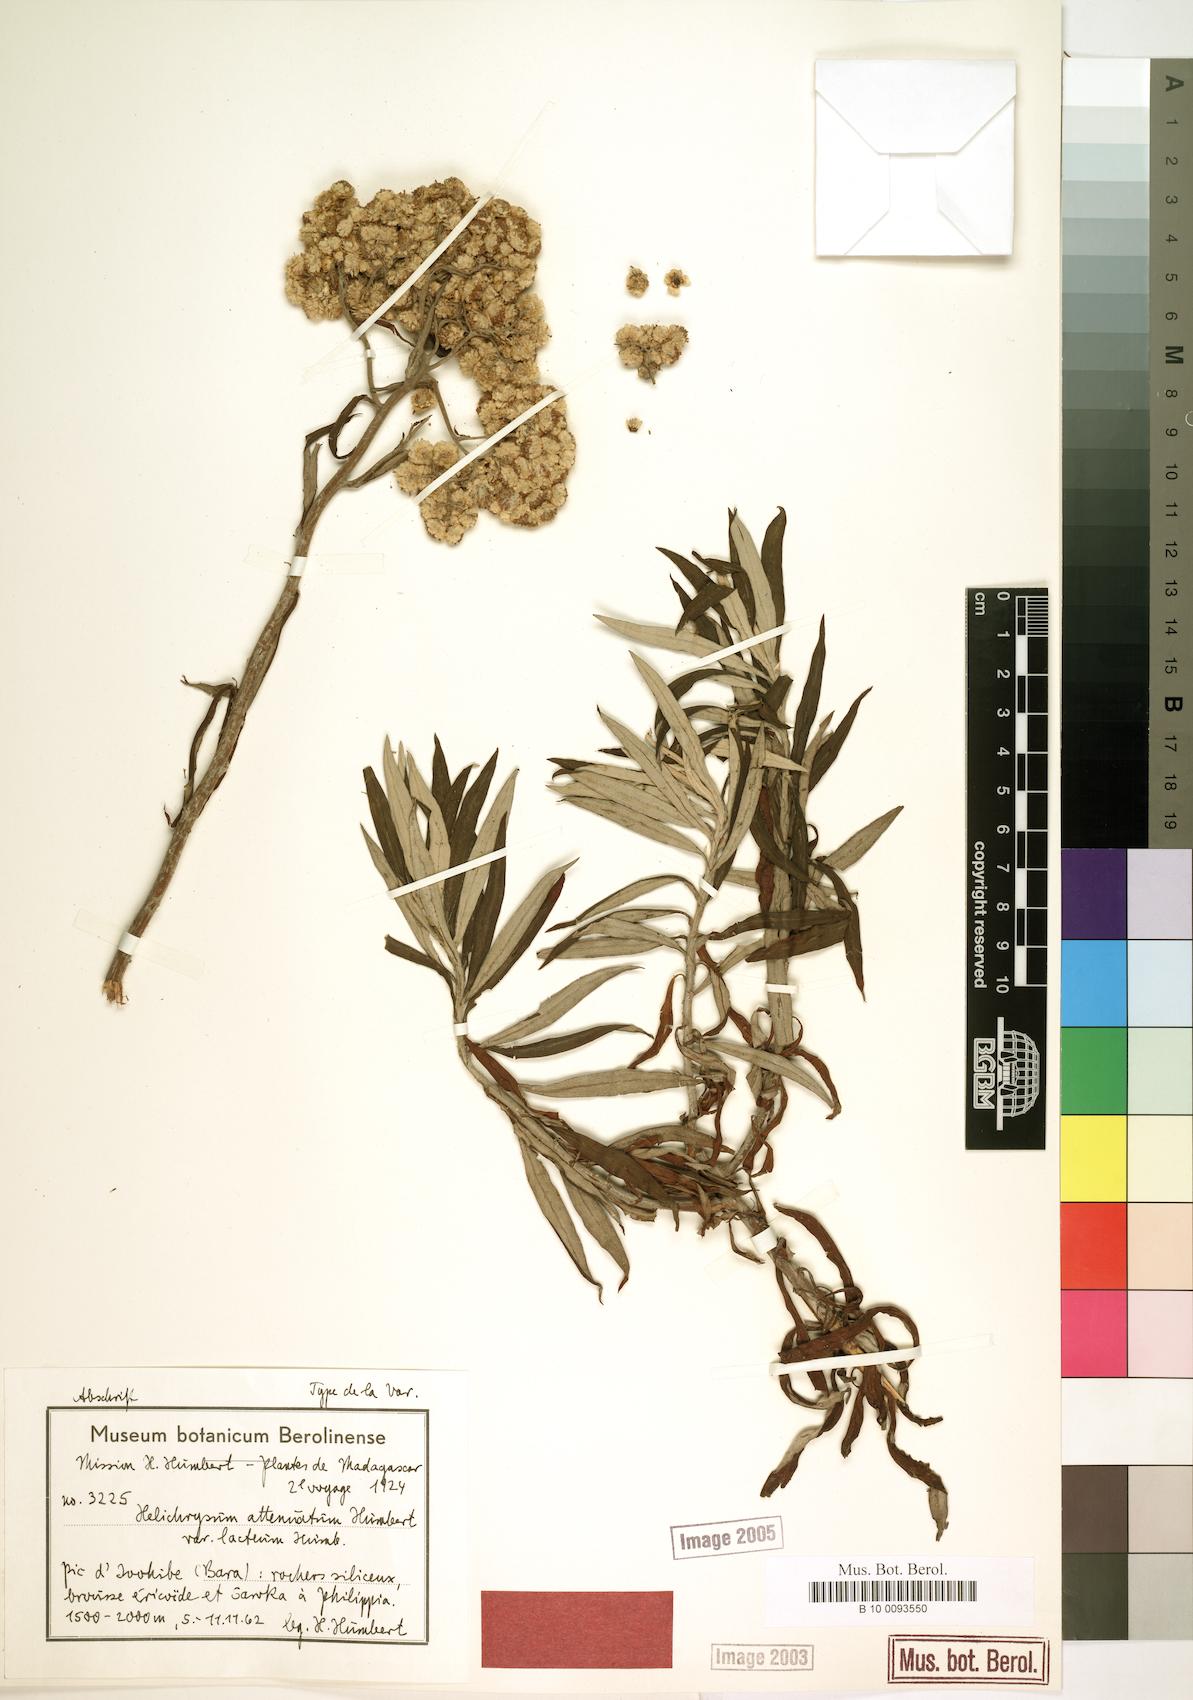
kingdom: Plantae
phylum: Tracheophyta
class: Magnoliopsida
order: Asterales
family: Asteraceae
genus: Helichrysum
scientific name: Helichrysum attenuatum
